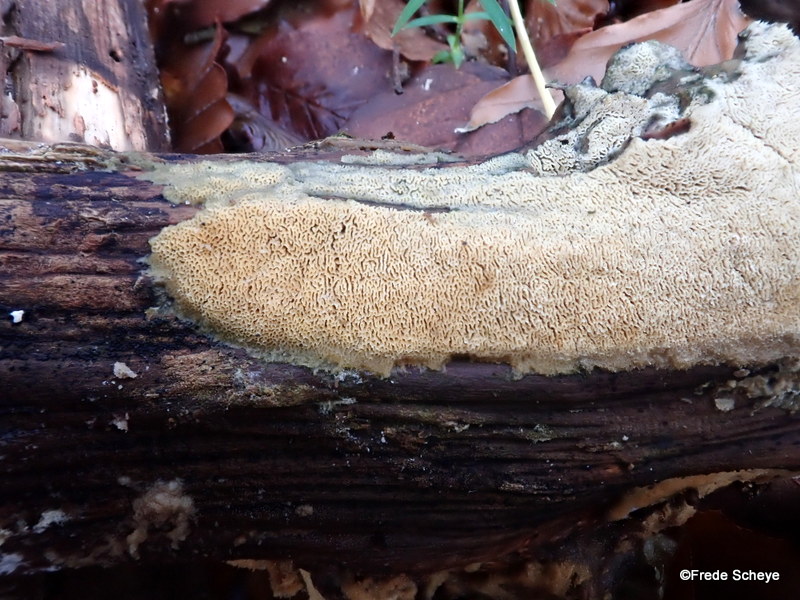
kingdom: Fungi
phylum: Basidiomycota
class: Agaricomycetes
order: Hymenochaetales
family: Schizoporaceae
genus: Xylodon
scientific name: Xylodon subtropicus
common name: labyrint-tandsvamp
